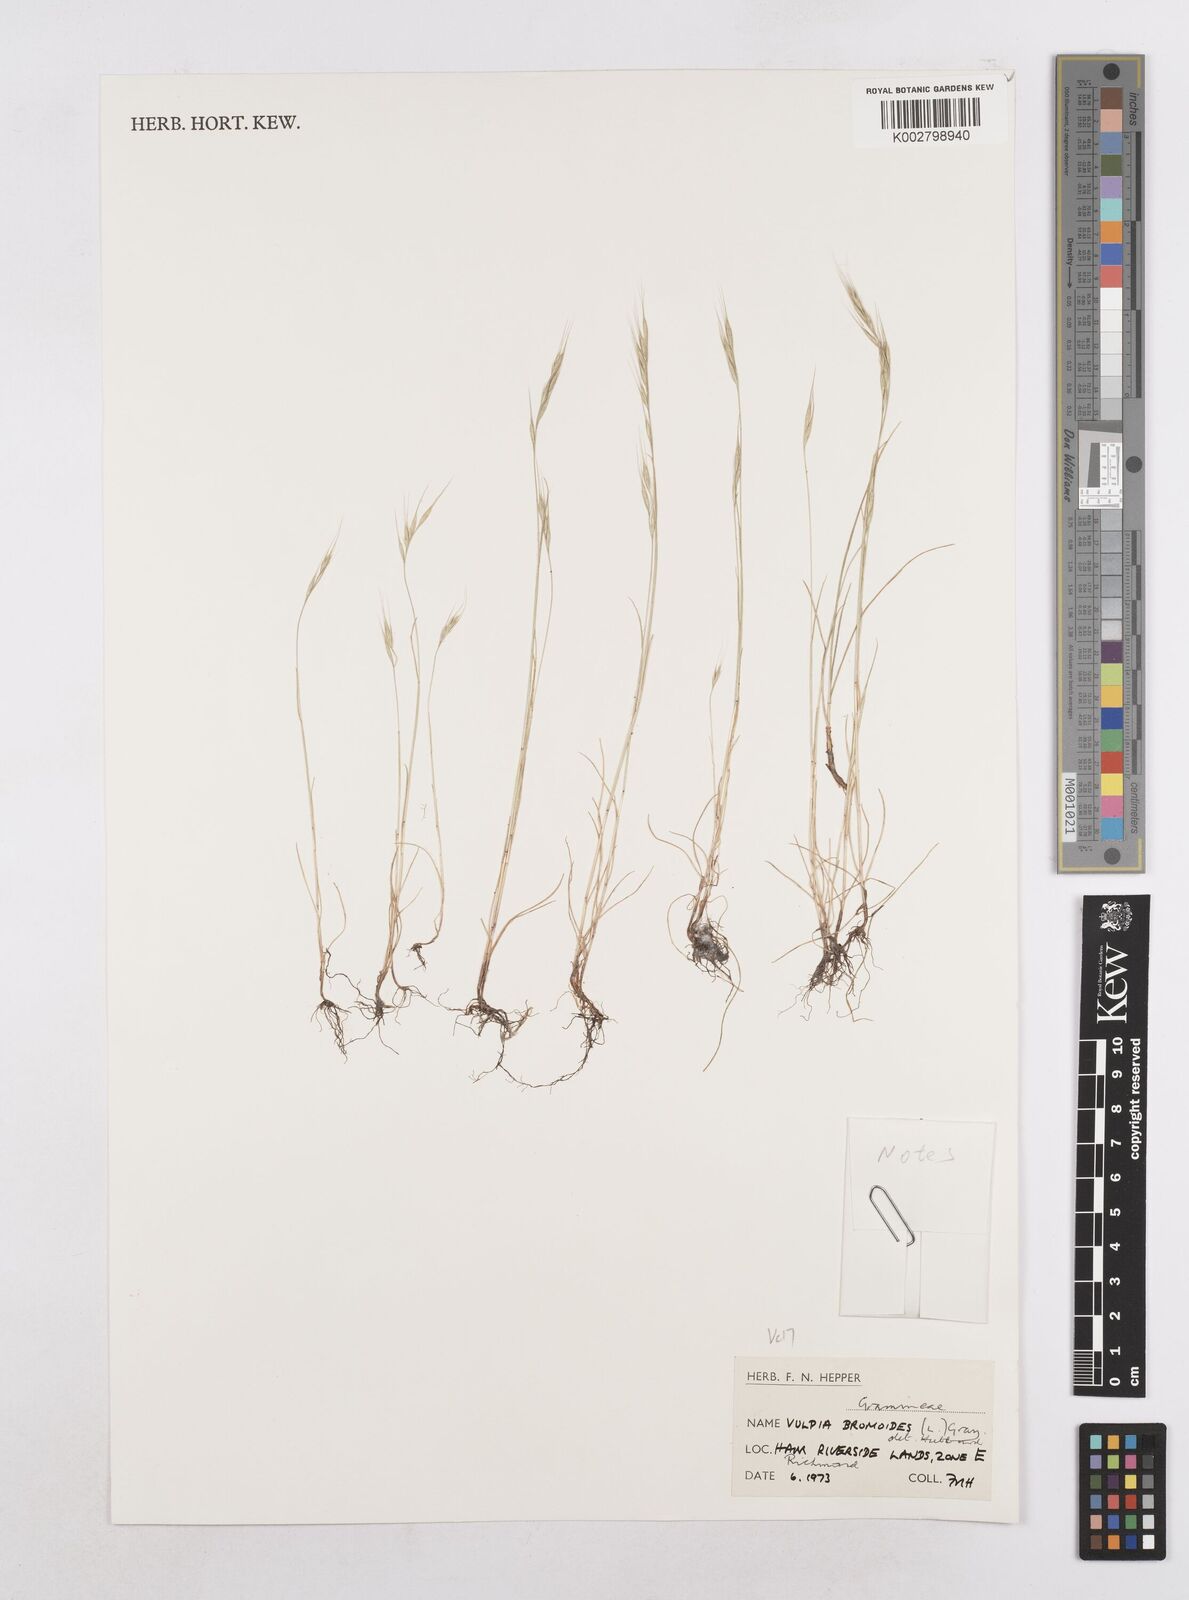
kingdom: Plantae
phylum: Tracheophyta
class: Liliopsida
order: Poales
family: Poaceae
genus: Festuca
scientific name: Festuca bromoides
